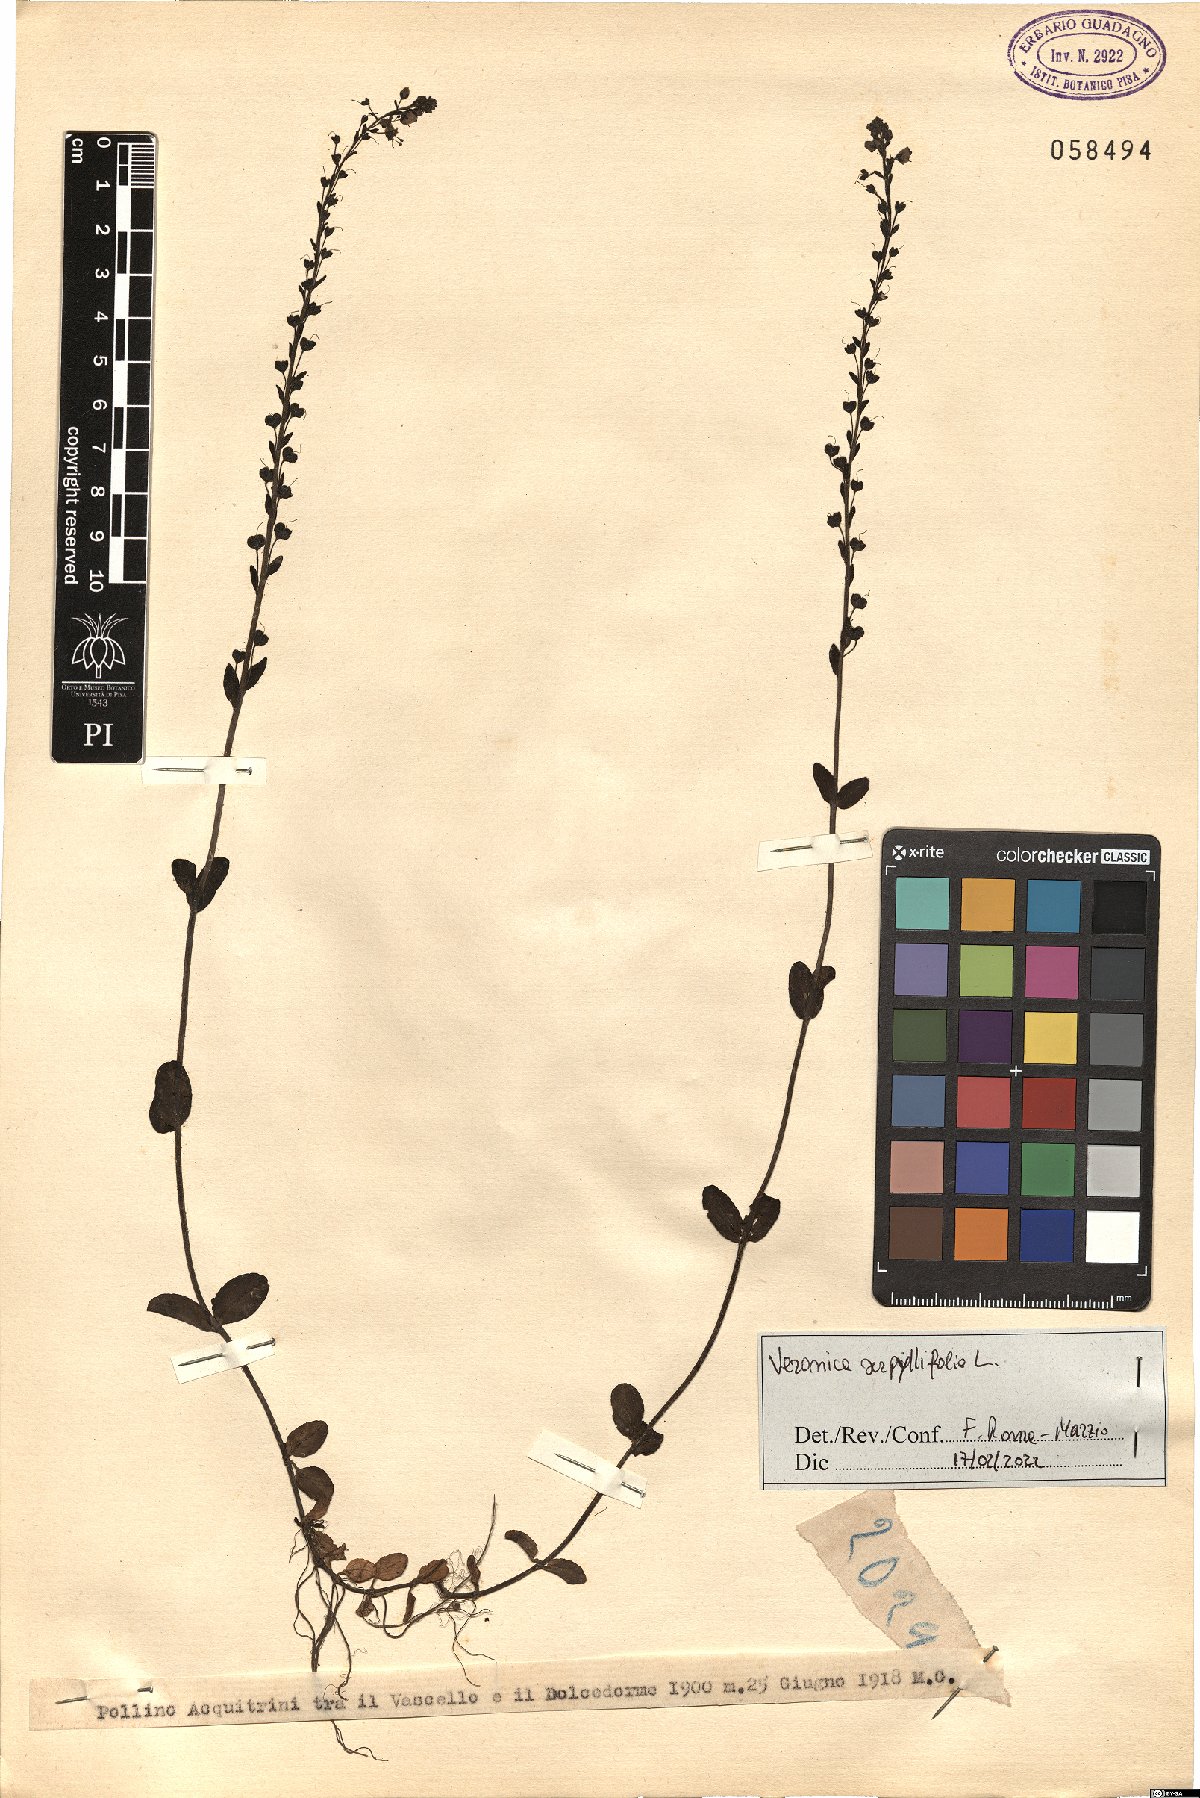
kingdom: Plantae
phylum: Tracheophyta
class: Magnoliopsida
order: Lamiales
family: Plantaginaceae
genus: Veronica
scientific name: Veronica serpyllifolia
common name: Thyme-leaved speedwell
